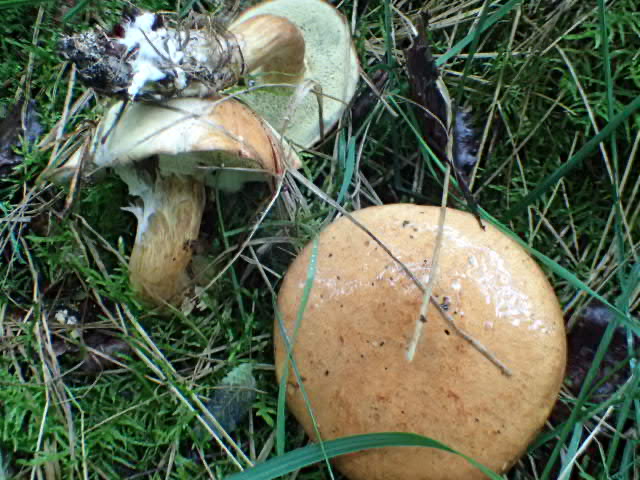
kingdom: Fungi
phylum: Basidiomycota
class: Agaricomycetes
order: Boletales
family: Boletaceae
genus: Imleria
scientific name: Imleria badia
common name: brunstokket rørhat
